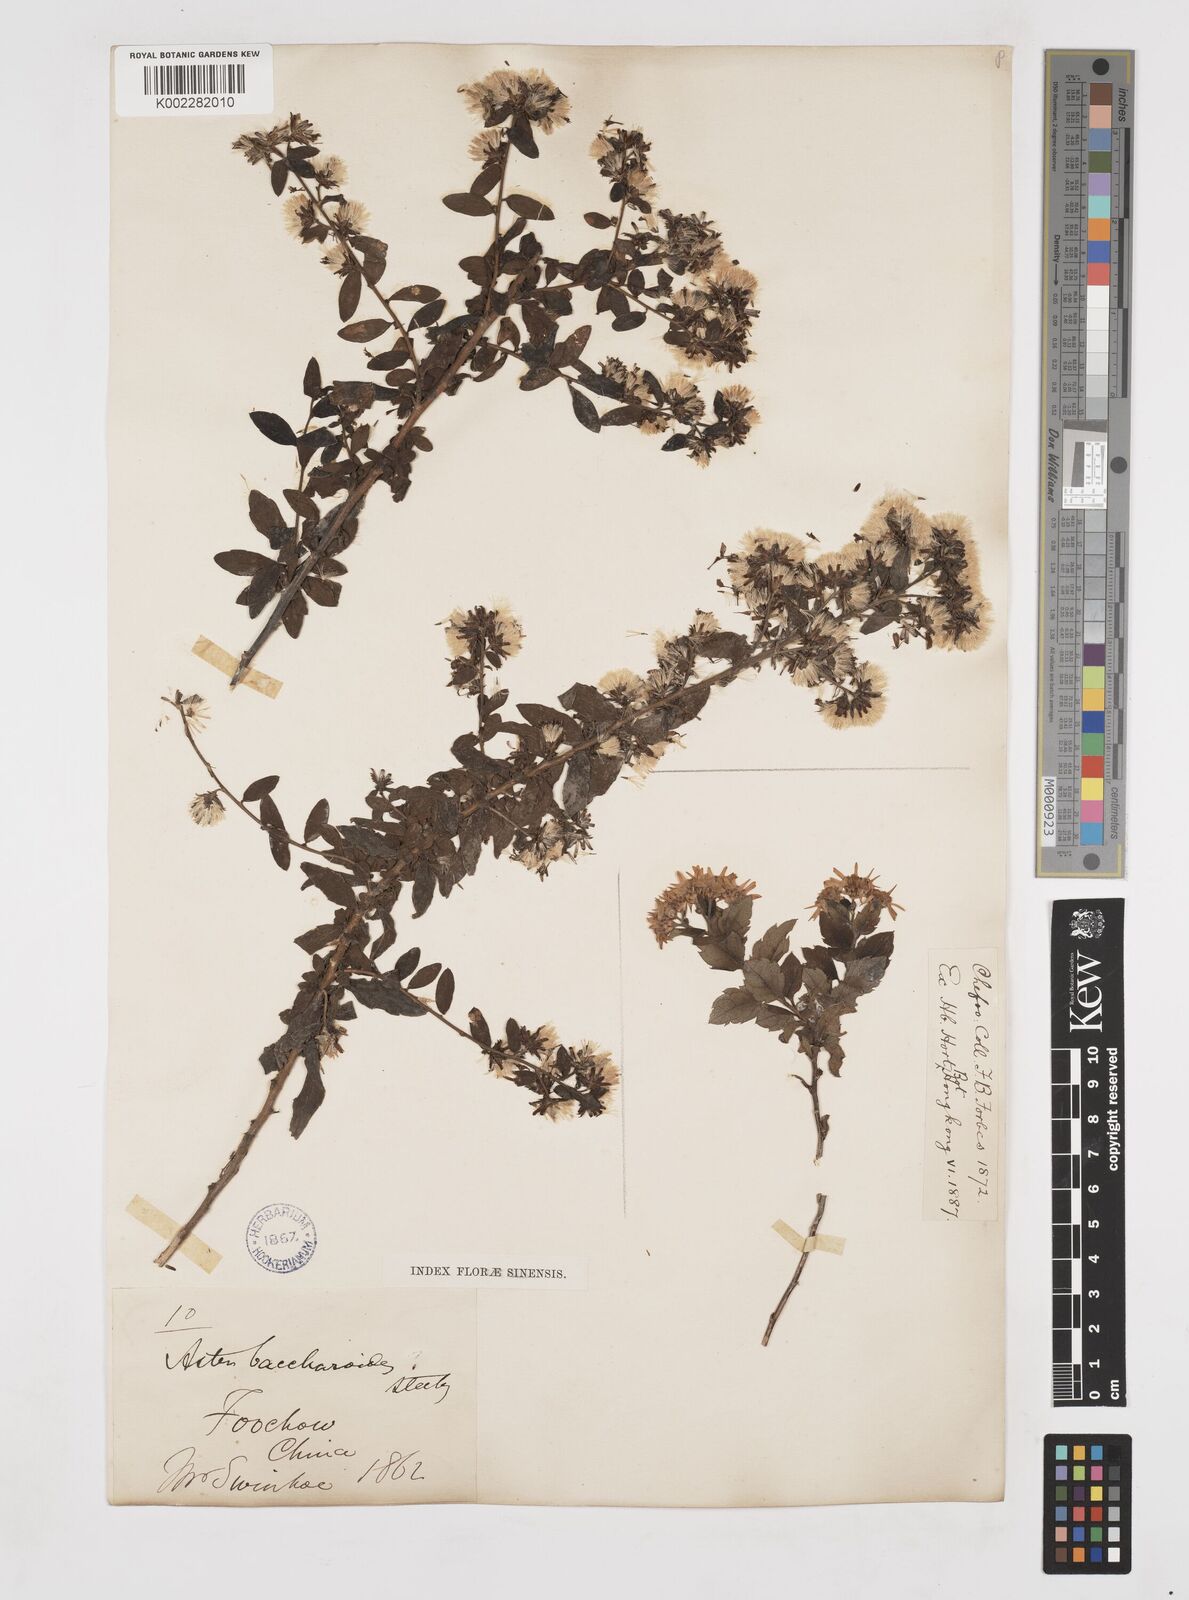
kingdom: Plantae
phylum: Tracheophyta
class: Magnoliopsida
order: Asterales
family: Asteraceae
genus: Aster
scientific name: Aster baccharoides
